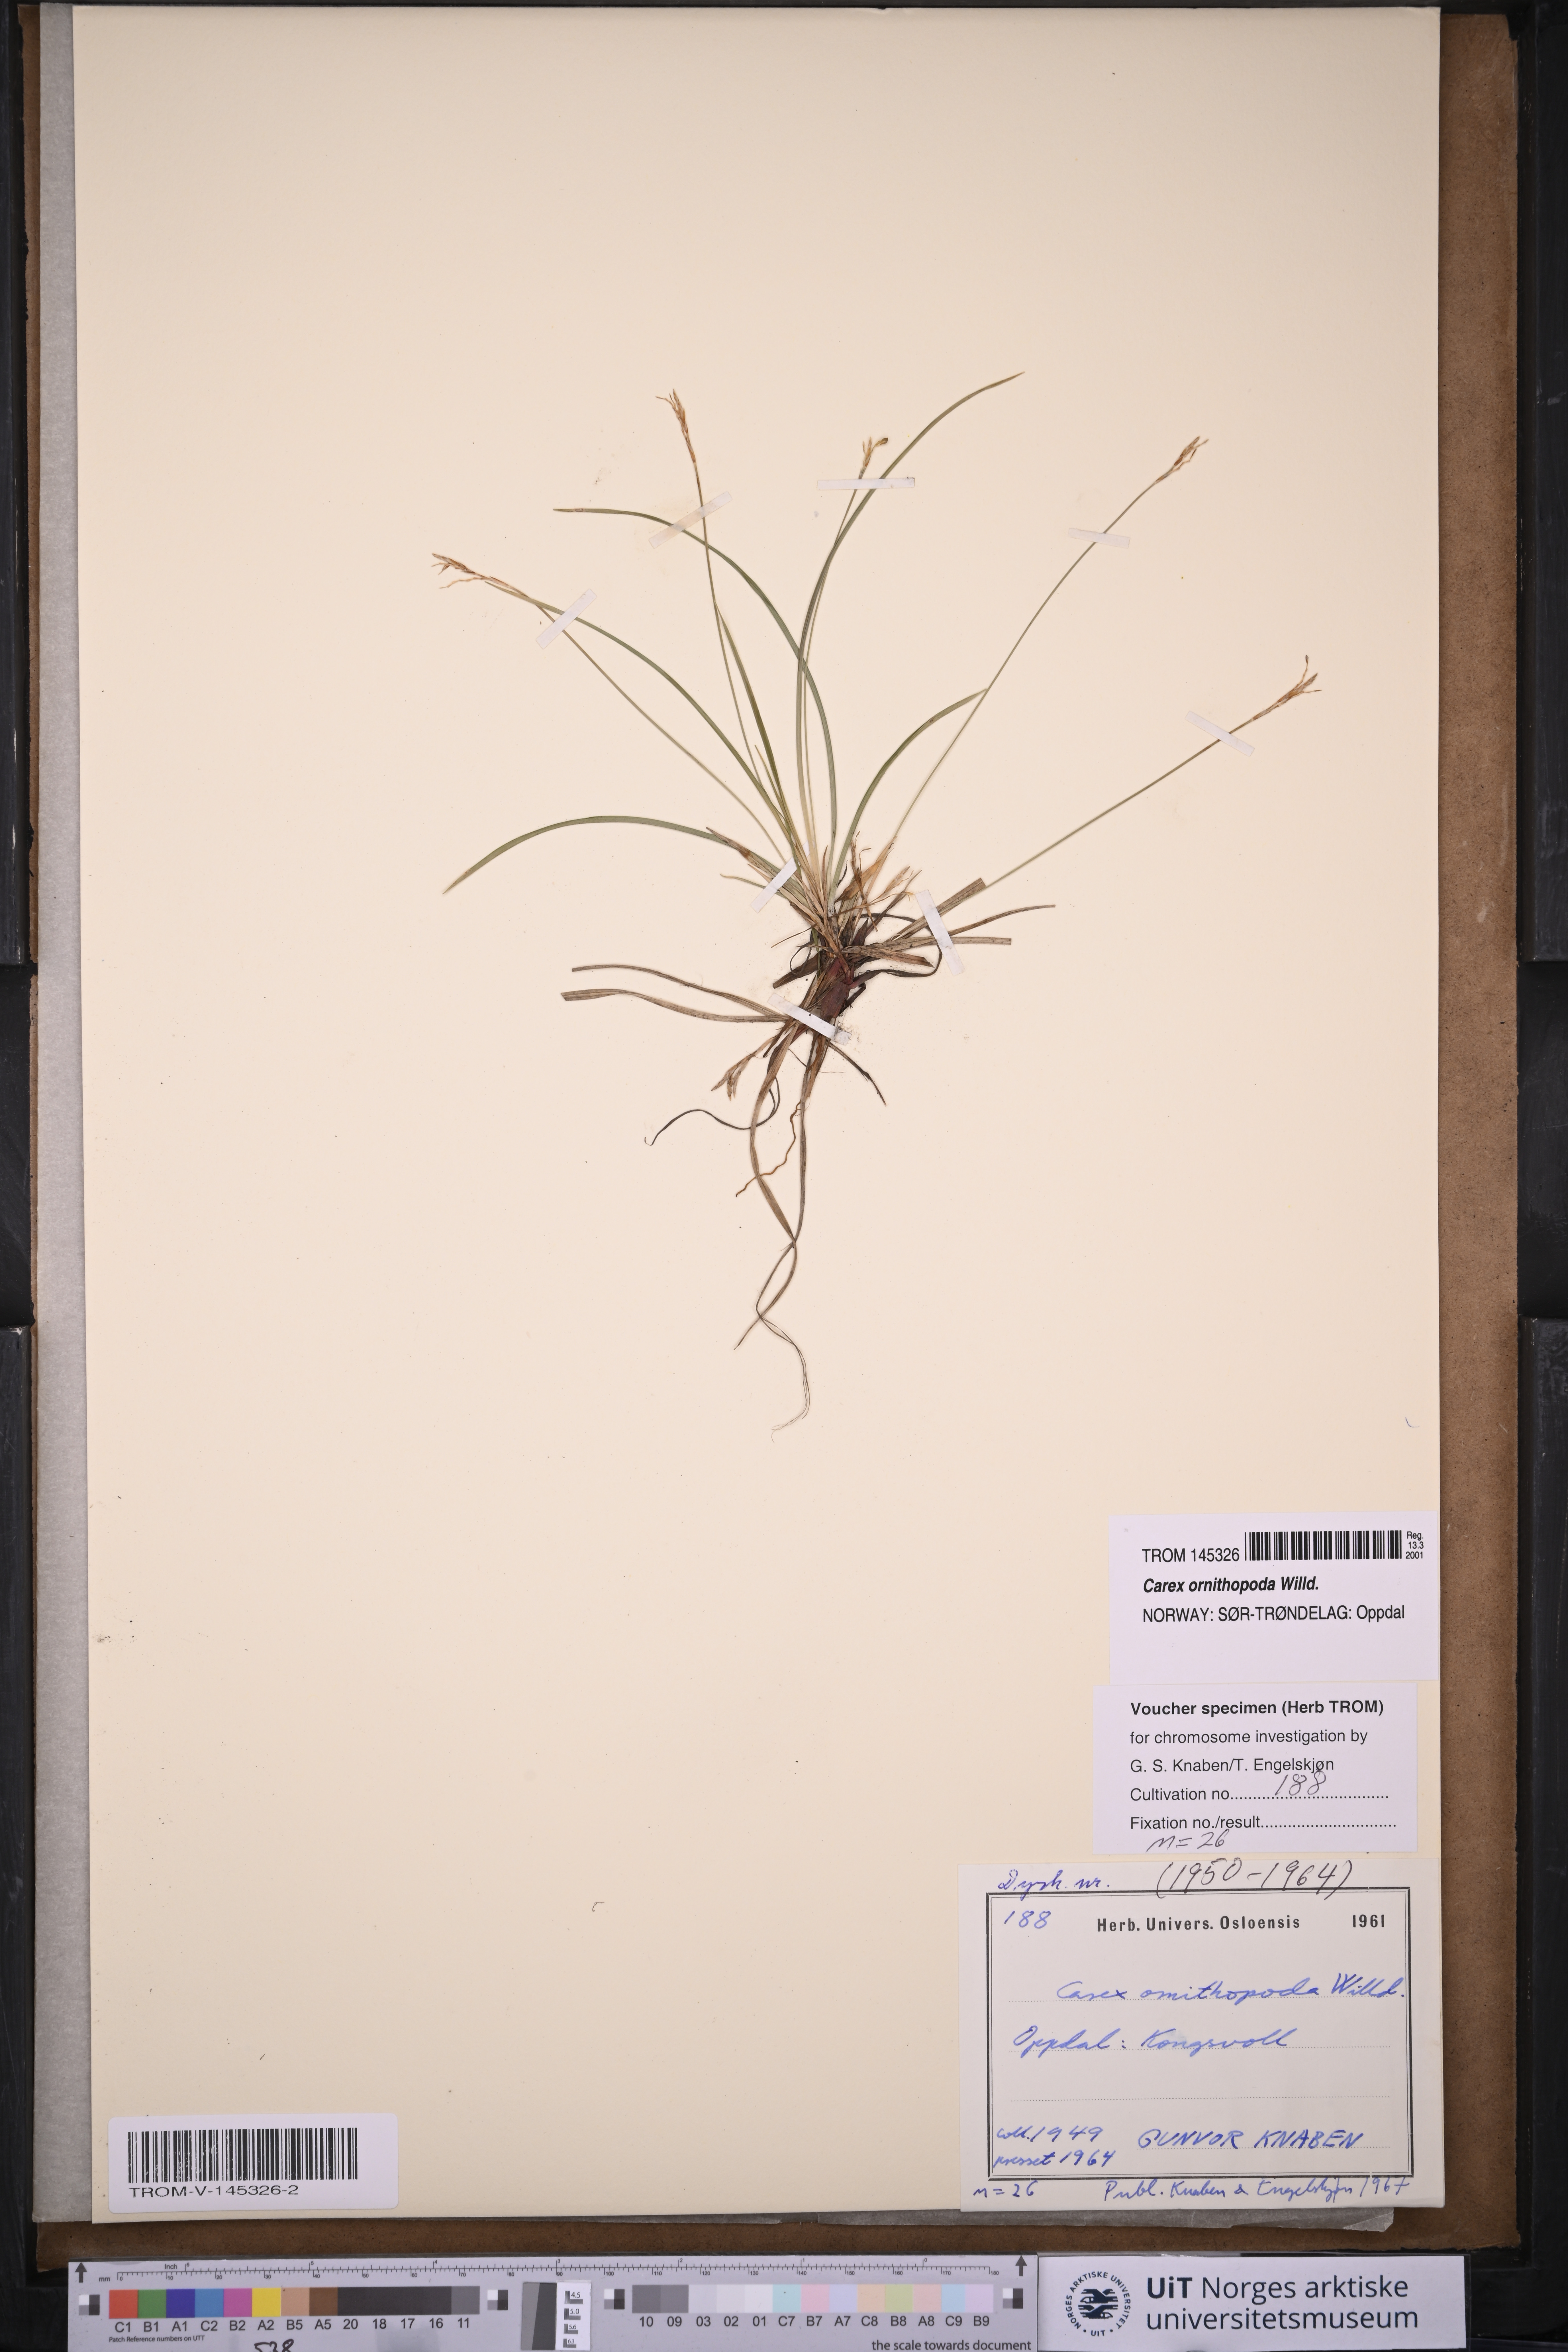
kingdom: Plantae
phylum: Tracheophyta
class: Liliopsida
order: Poales
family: Cyperaceae
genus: Carex
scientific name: Carex ornithopoda
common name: Bird's-foot sedge
